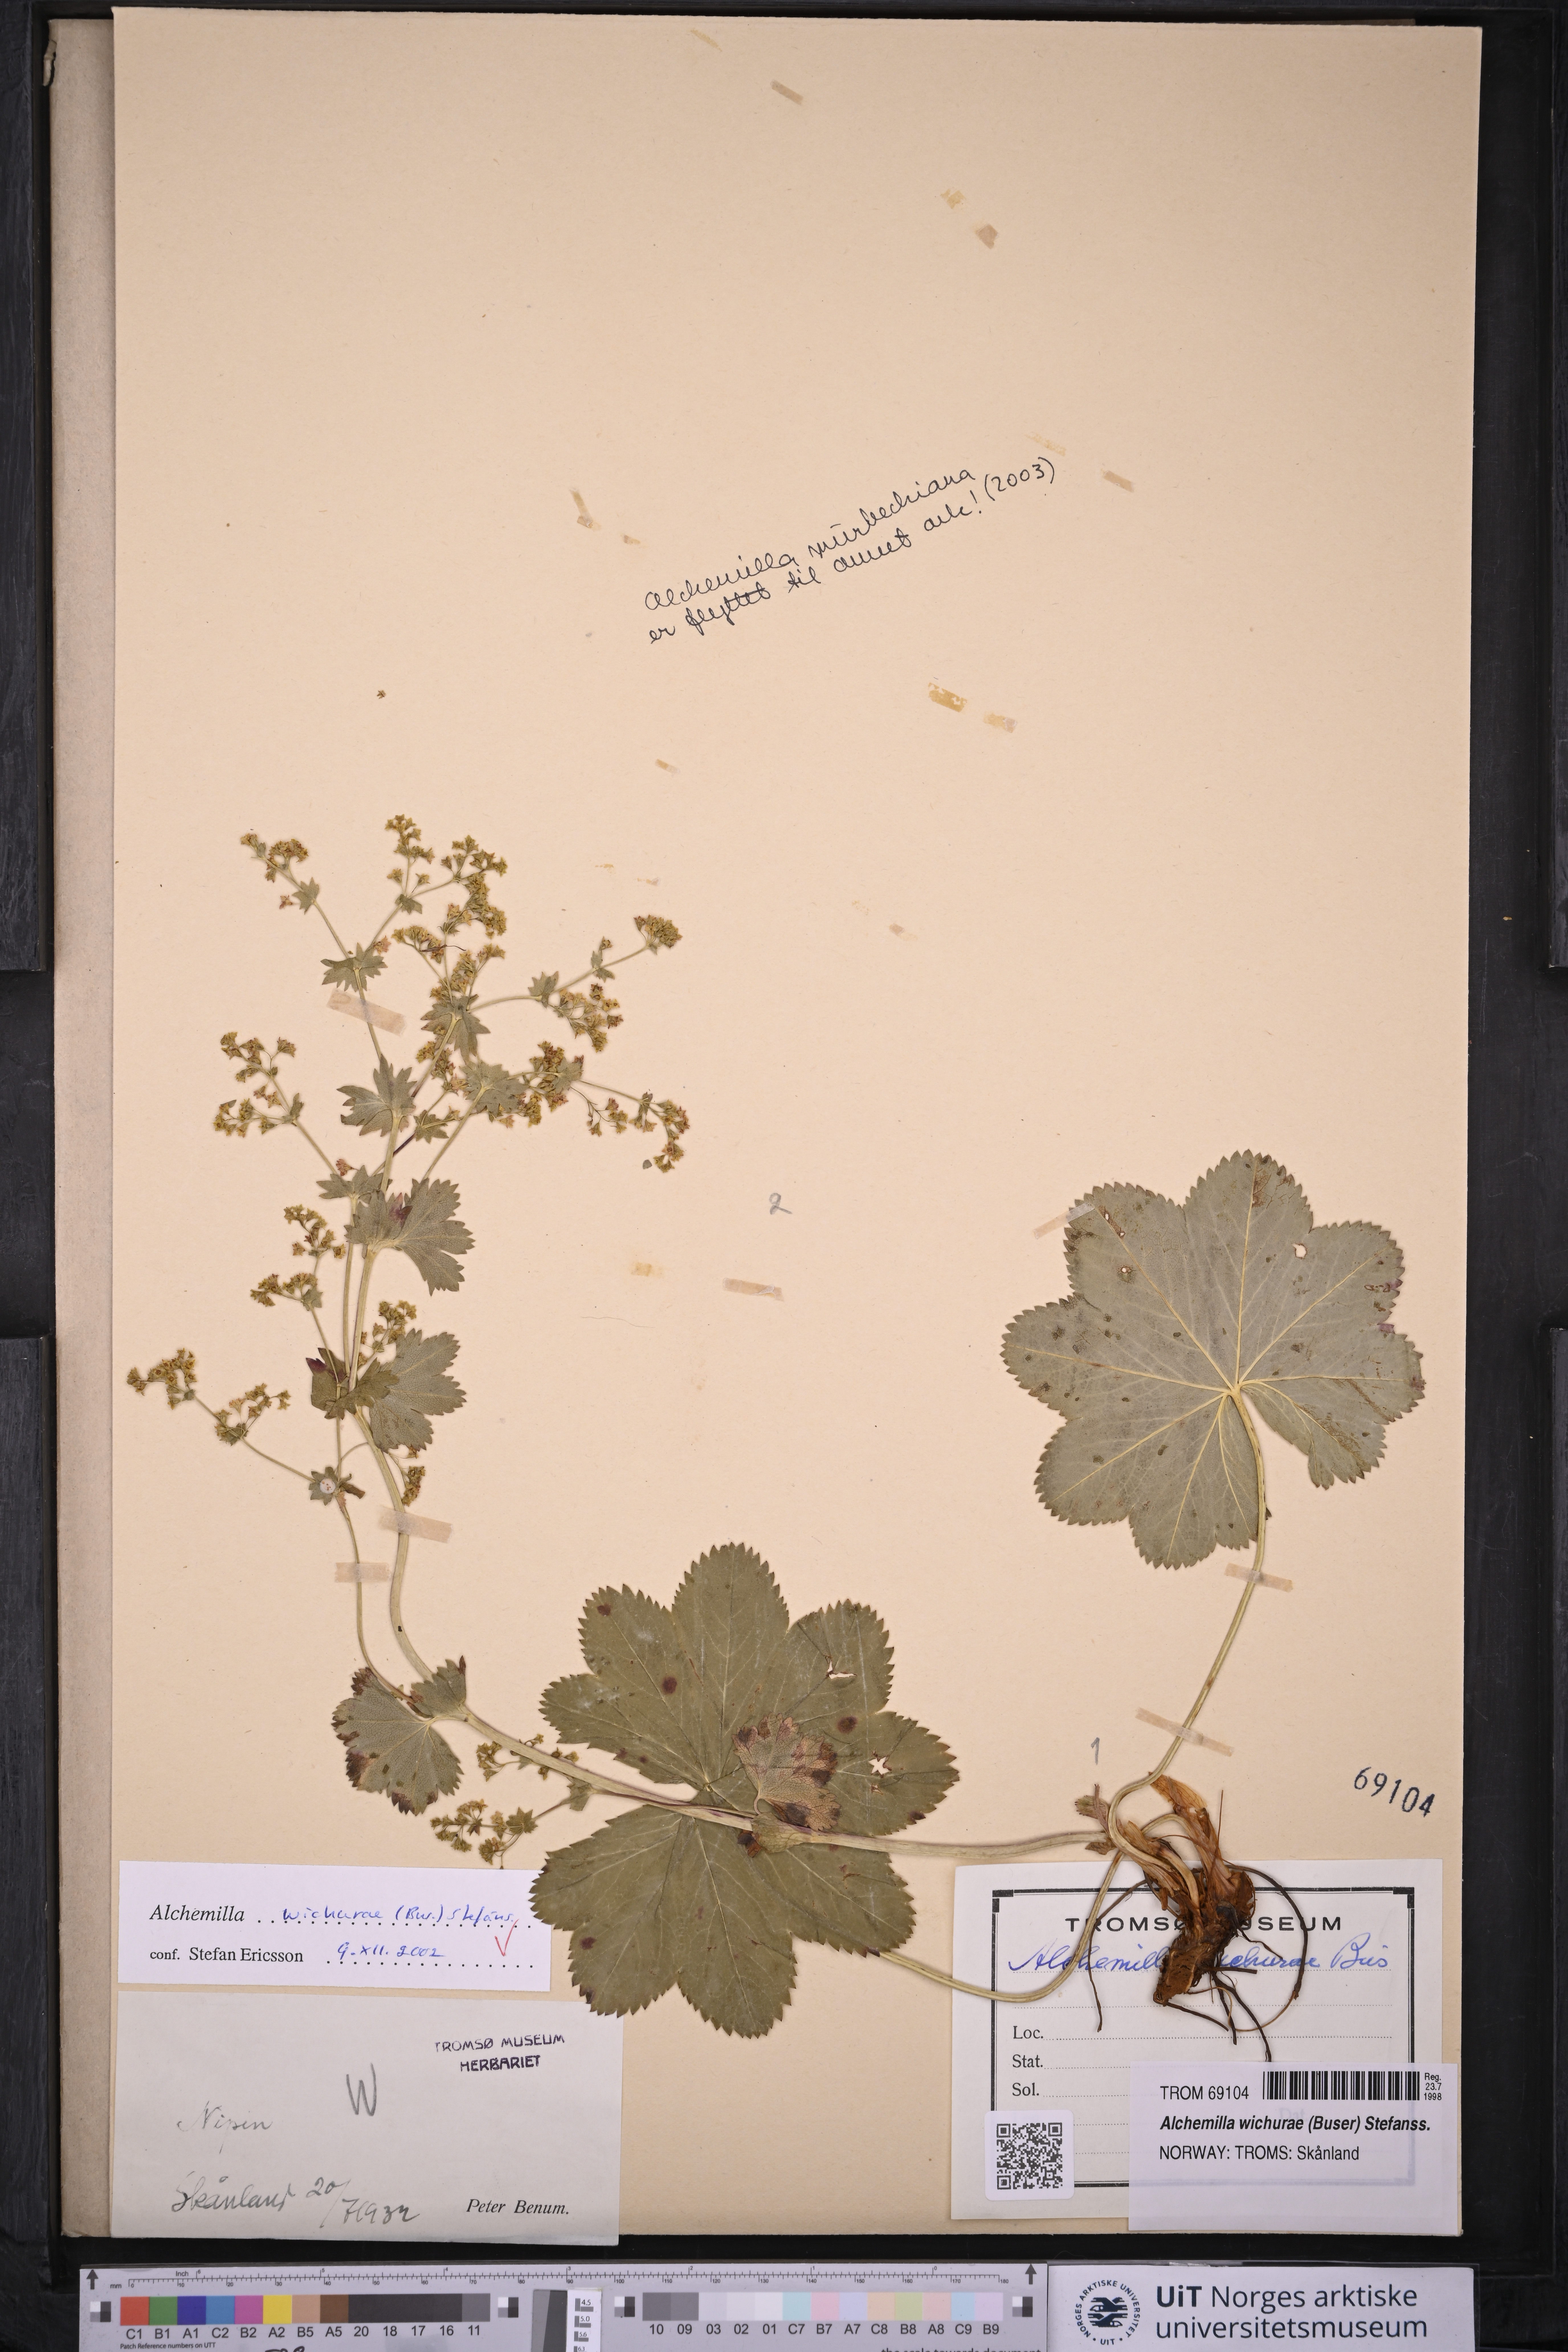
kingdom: Plantae
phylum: Tracheophyta
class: Magnoliopsida
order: Rosales
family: Rosaceae
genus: Alchemilla
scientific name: Alchemilla wichurae
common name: Rock lady's mantle
